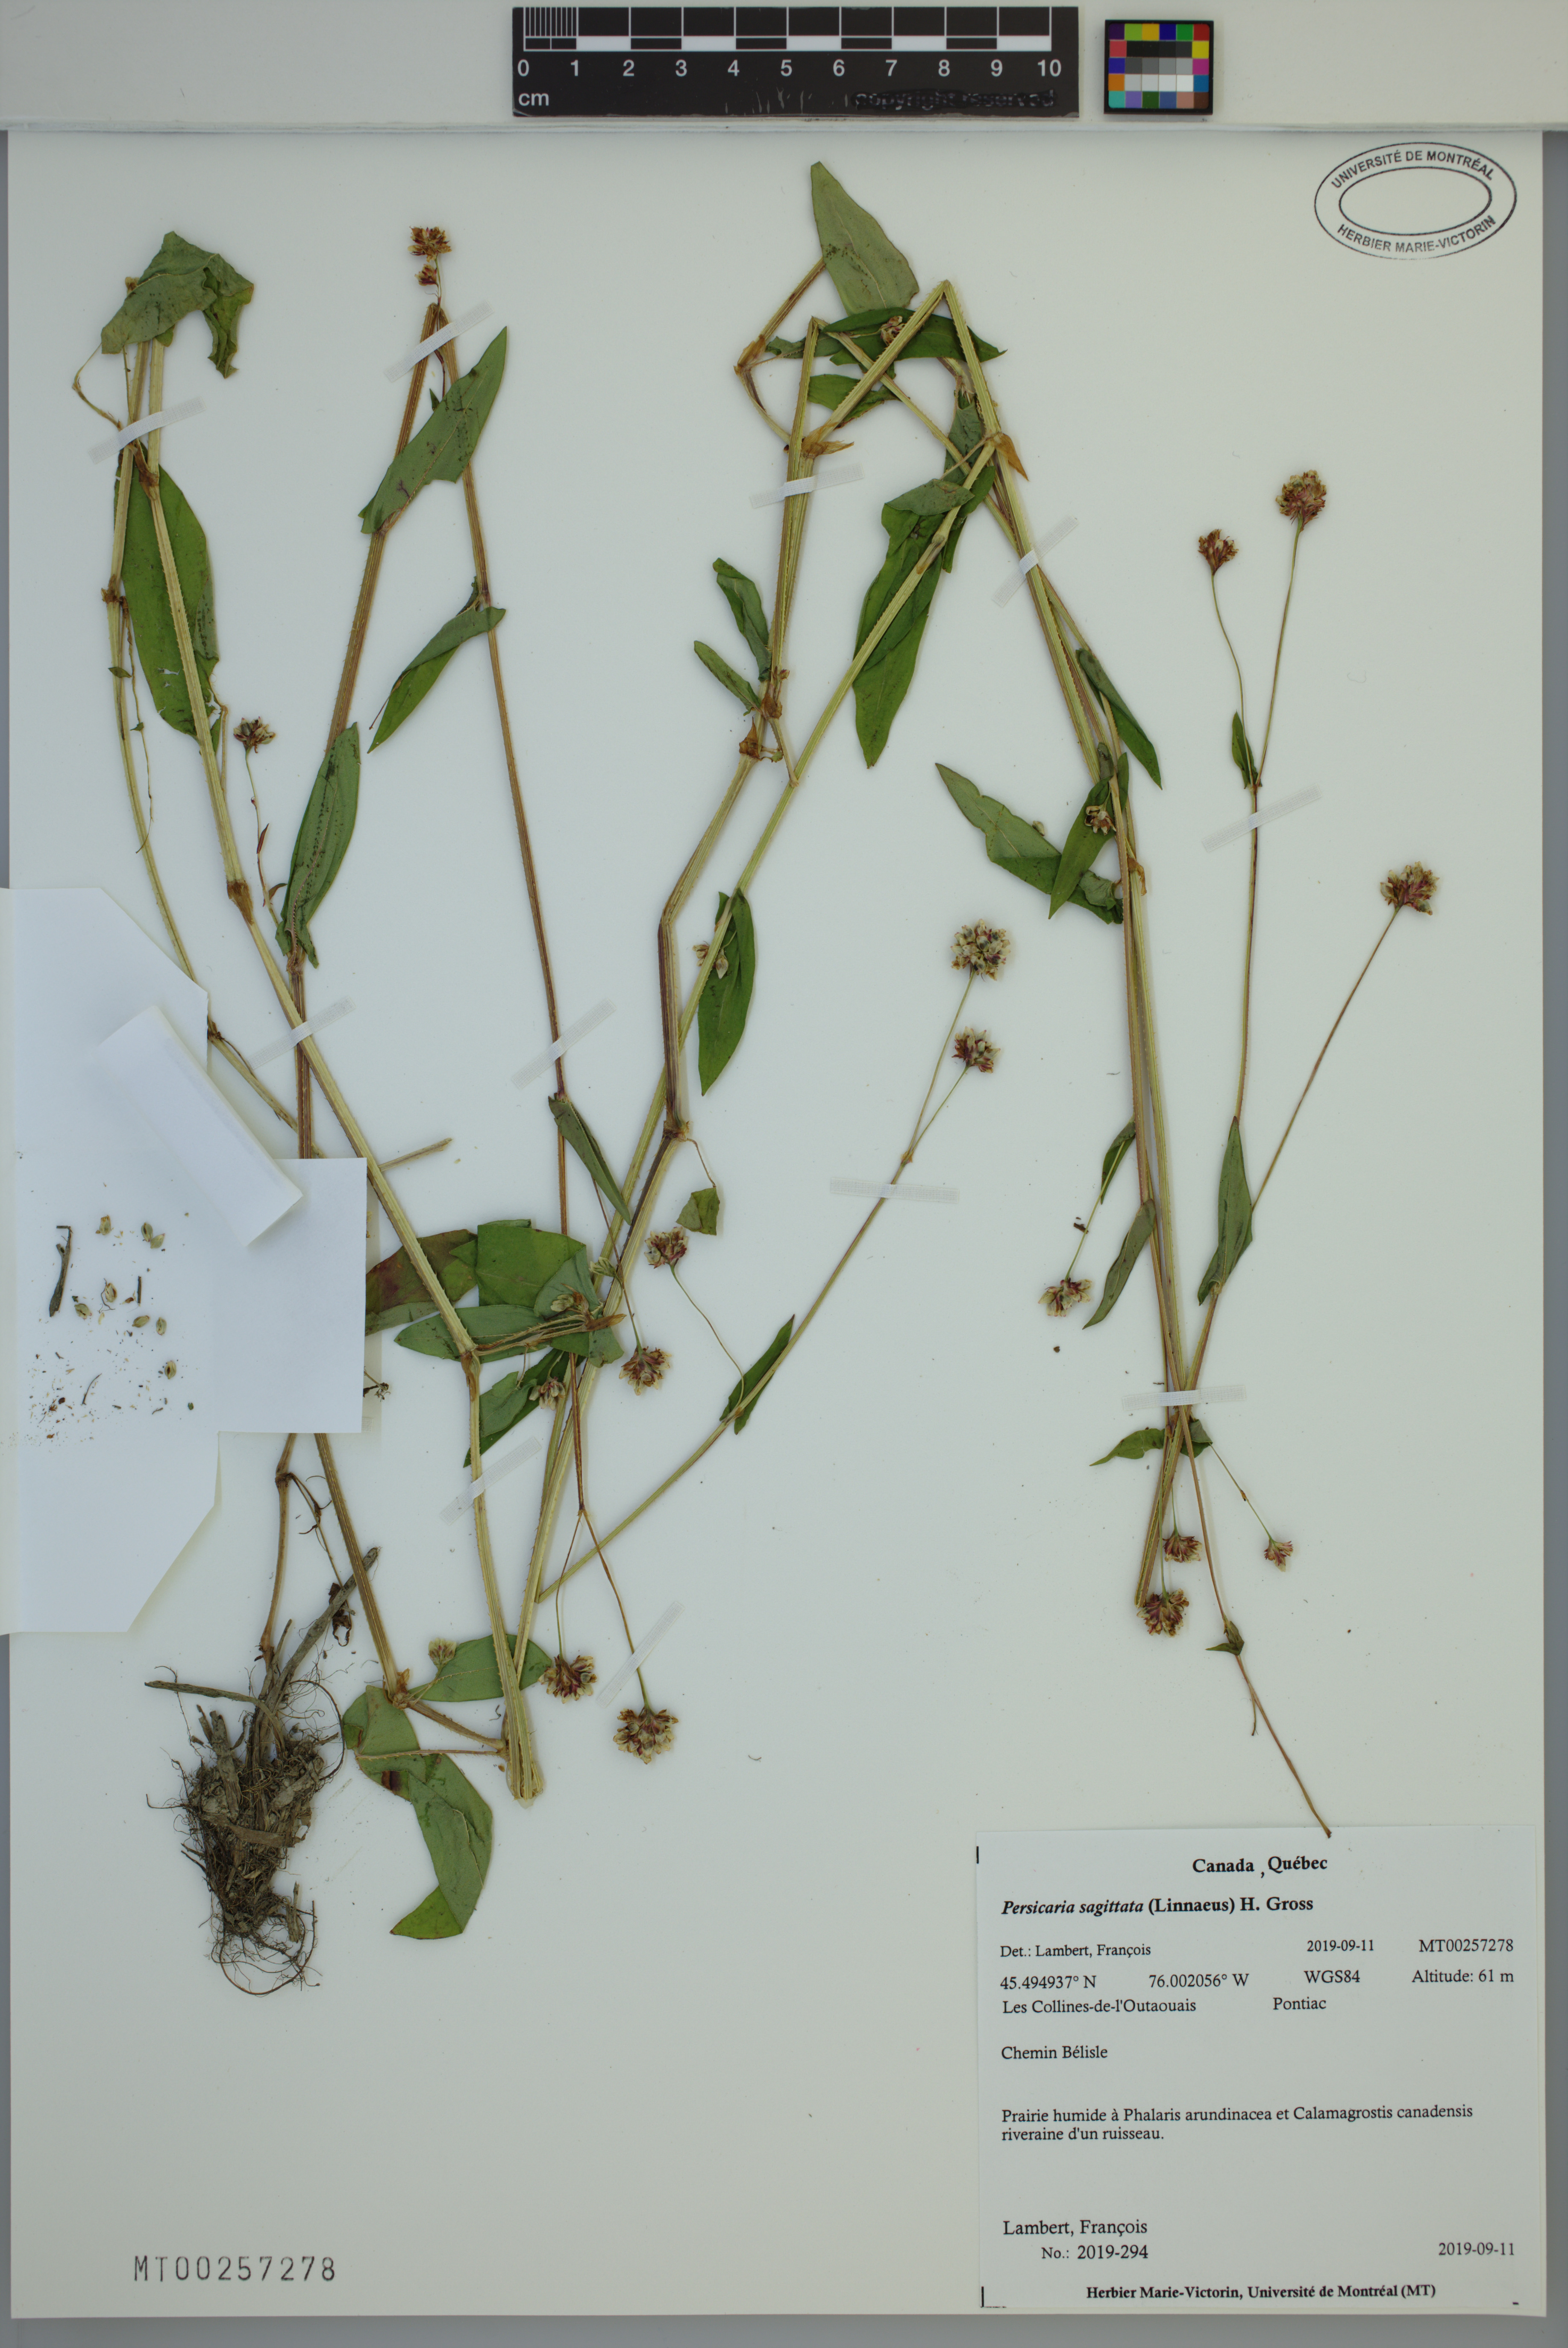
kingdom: Plantae
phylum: Tracheophyta
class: Magnoliopsida
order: Caryophyllales
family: Polygonaceae
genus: Persicaria
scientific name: Persicaria sagittata
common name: American tearthumb
